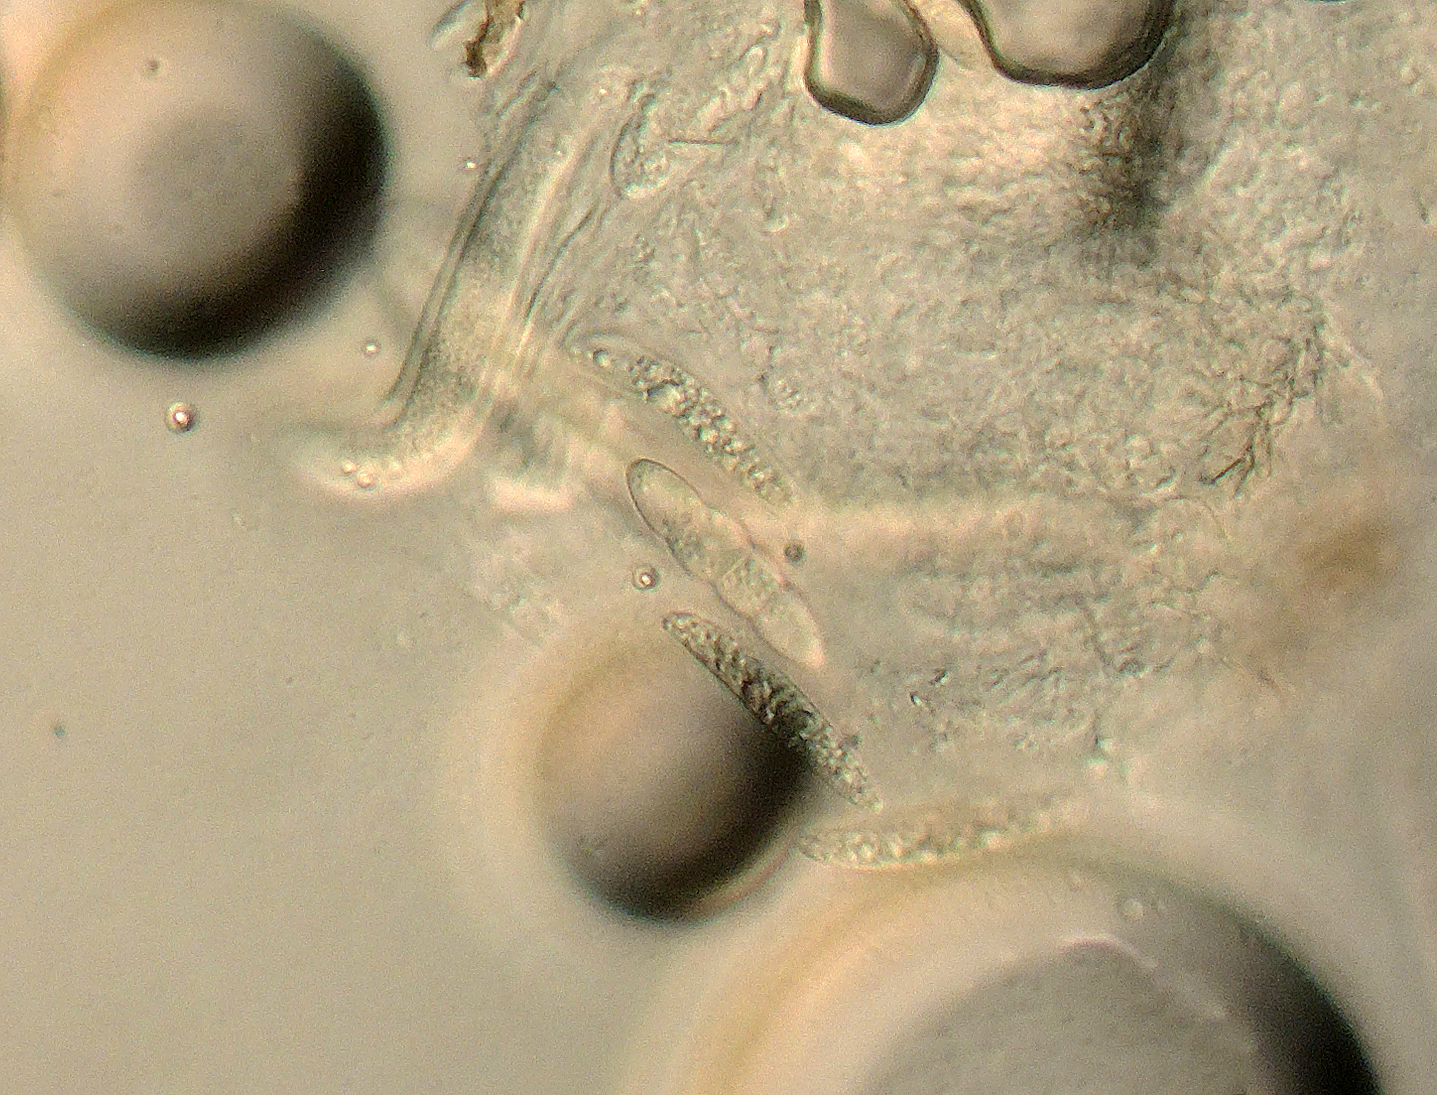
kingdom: Fungi
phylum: Ascomycota
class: Dothideomycetes
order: Pleosporales
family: Phaeosphaeriaceae
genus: Nodulosphaeria
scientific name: Nodulosphaeria galiorum
